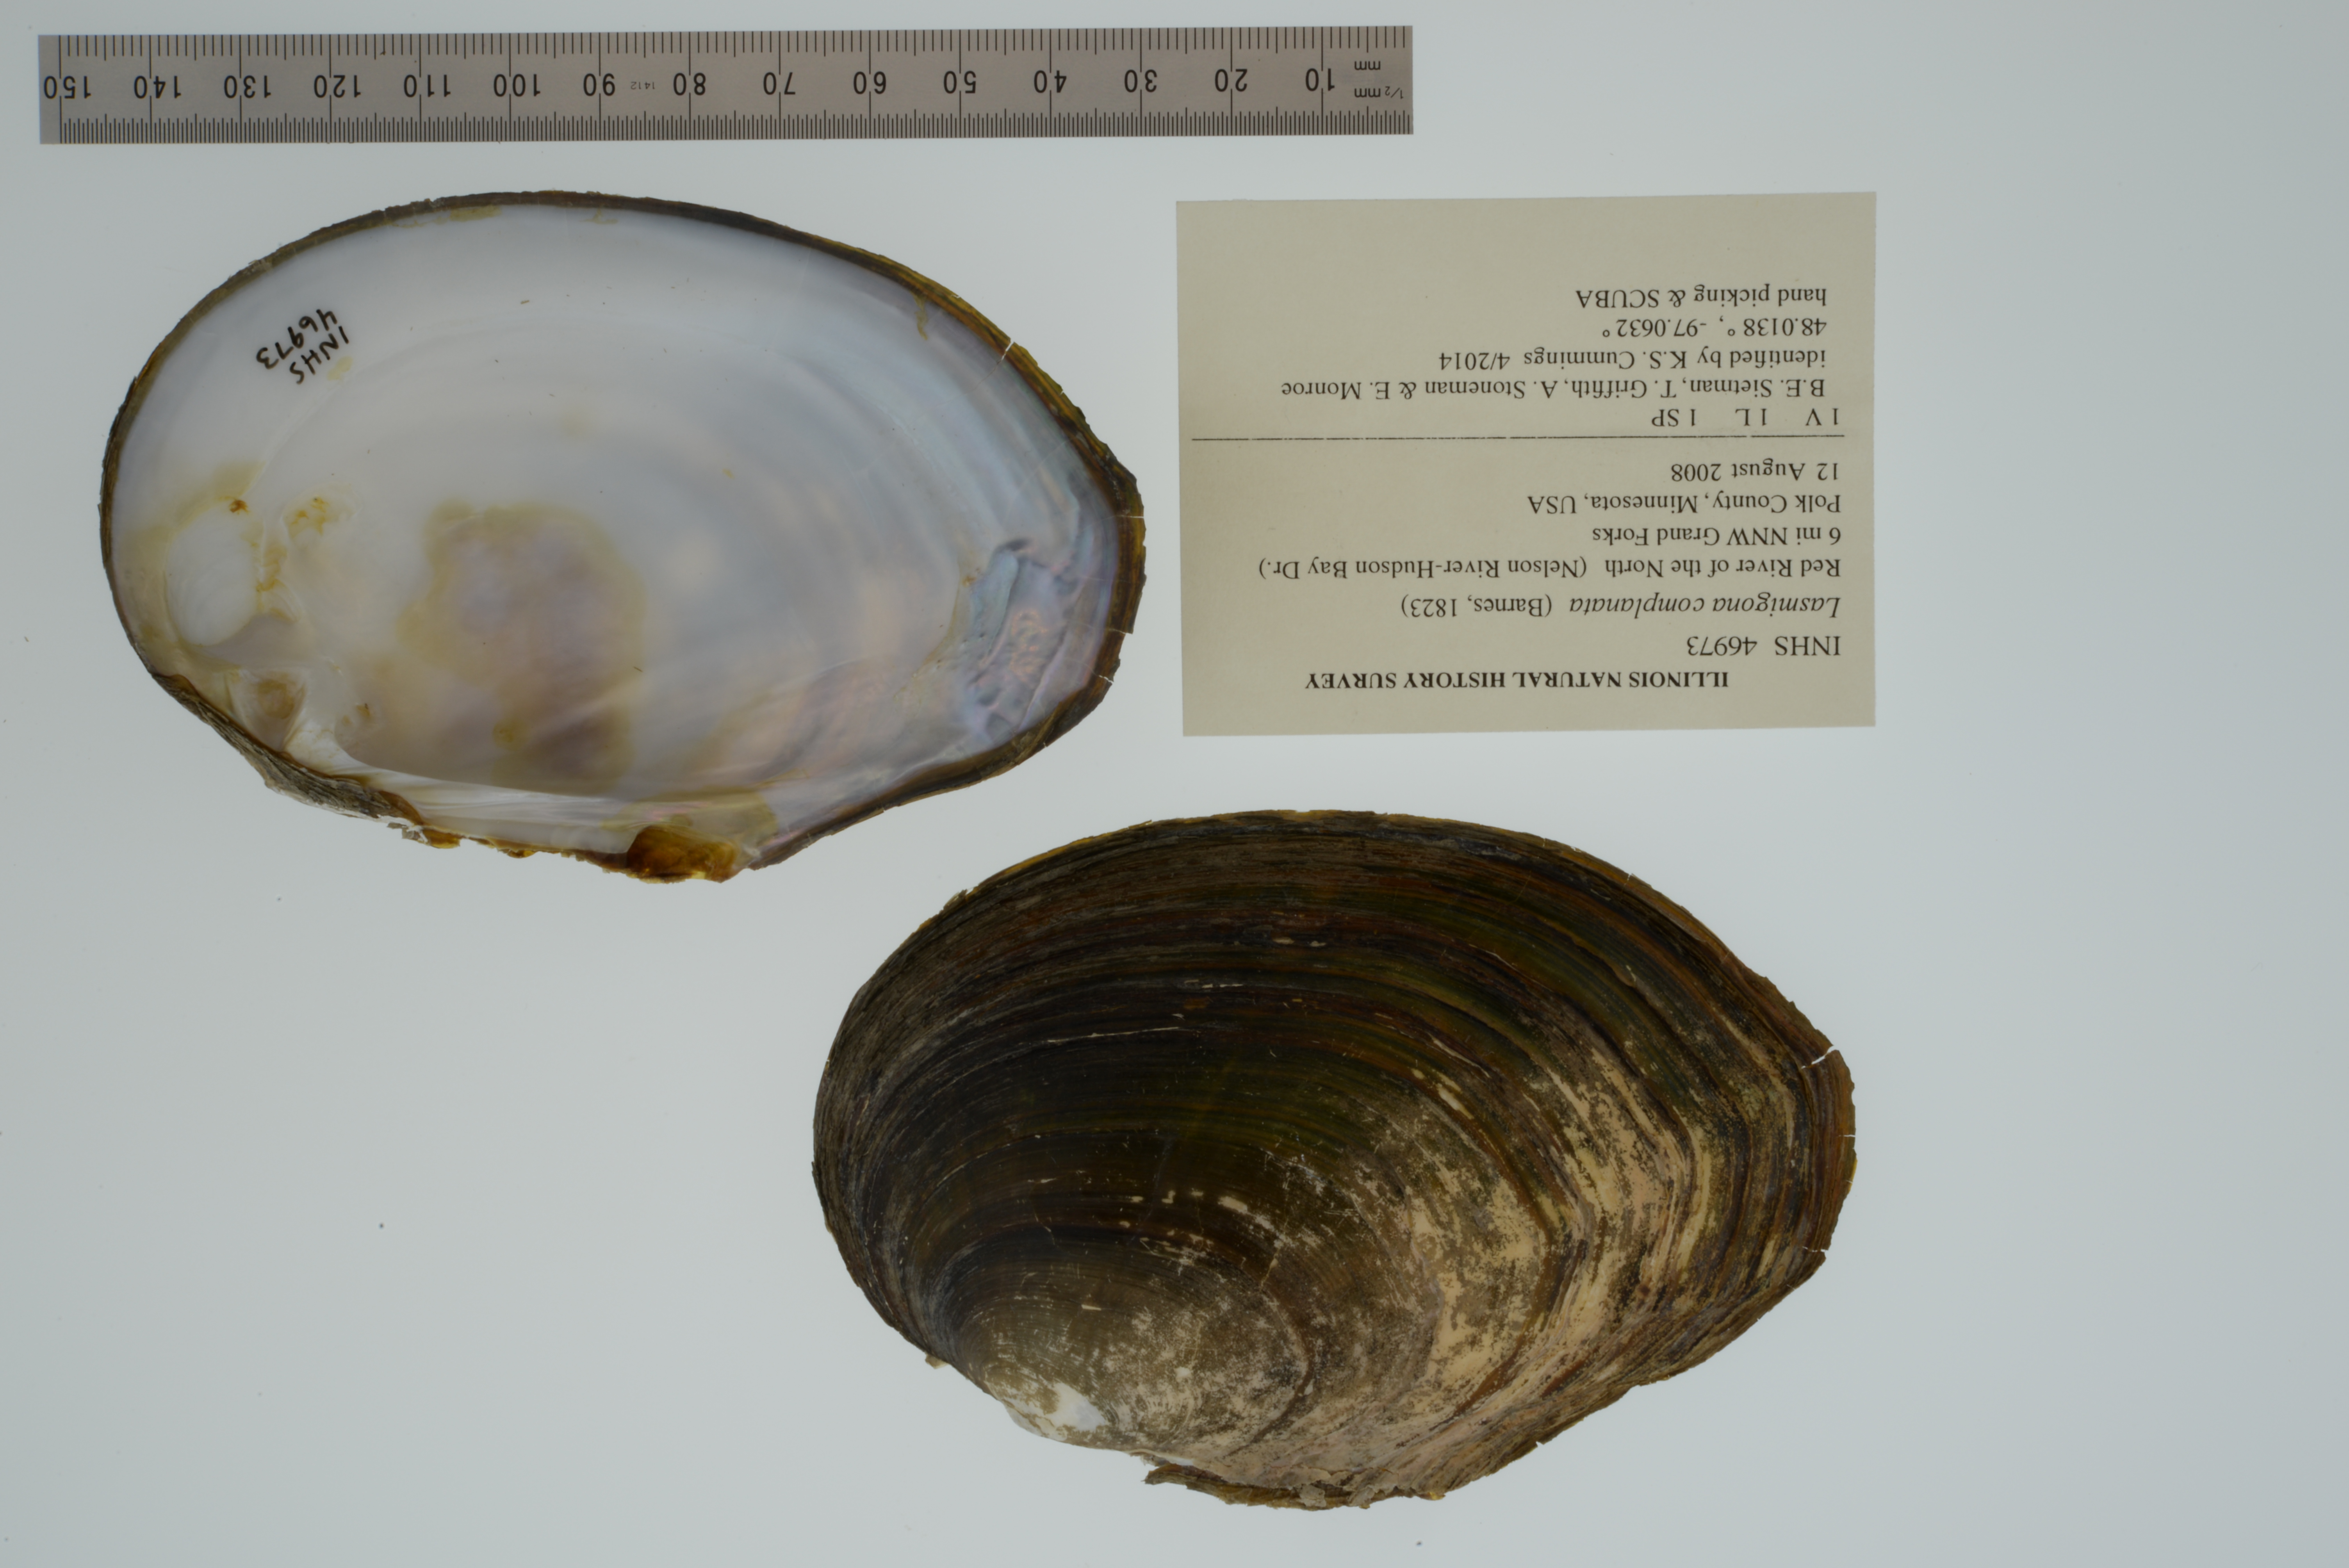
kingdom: Animalia
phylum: Mollusca
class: Bivalvia
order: Unionida
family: Unionidae
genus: Lasmigona
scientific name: Lasmigona complanata
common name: White heelsplitter
